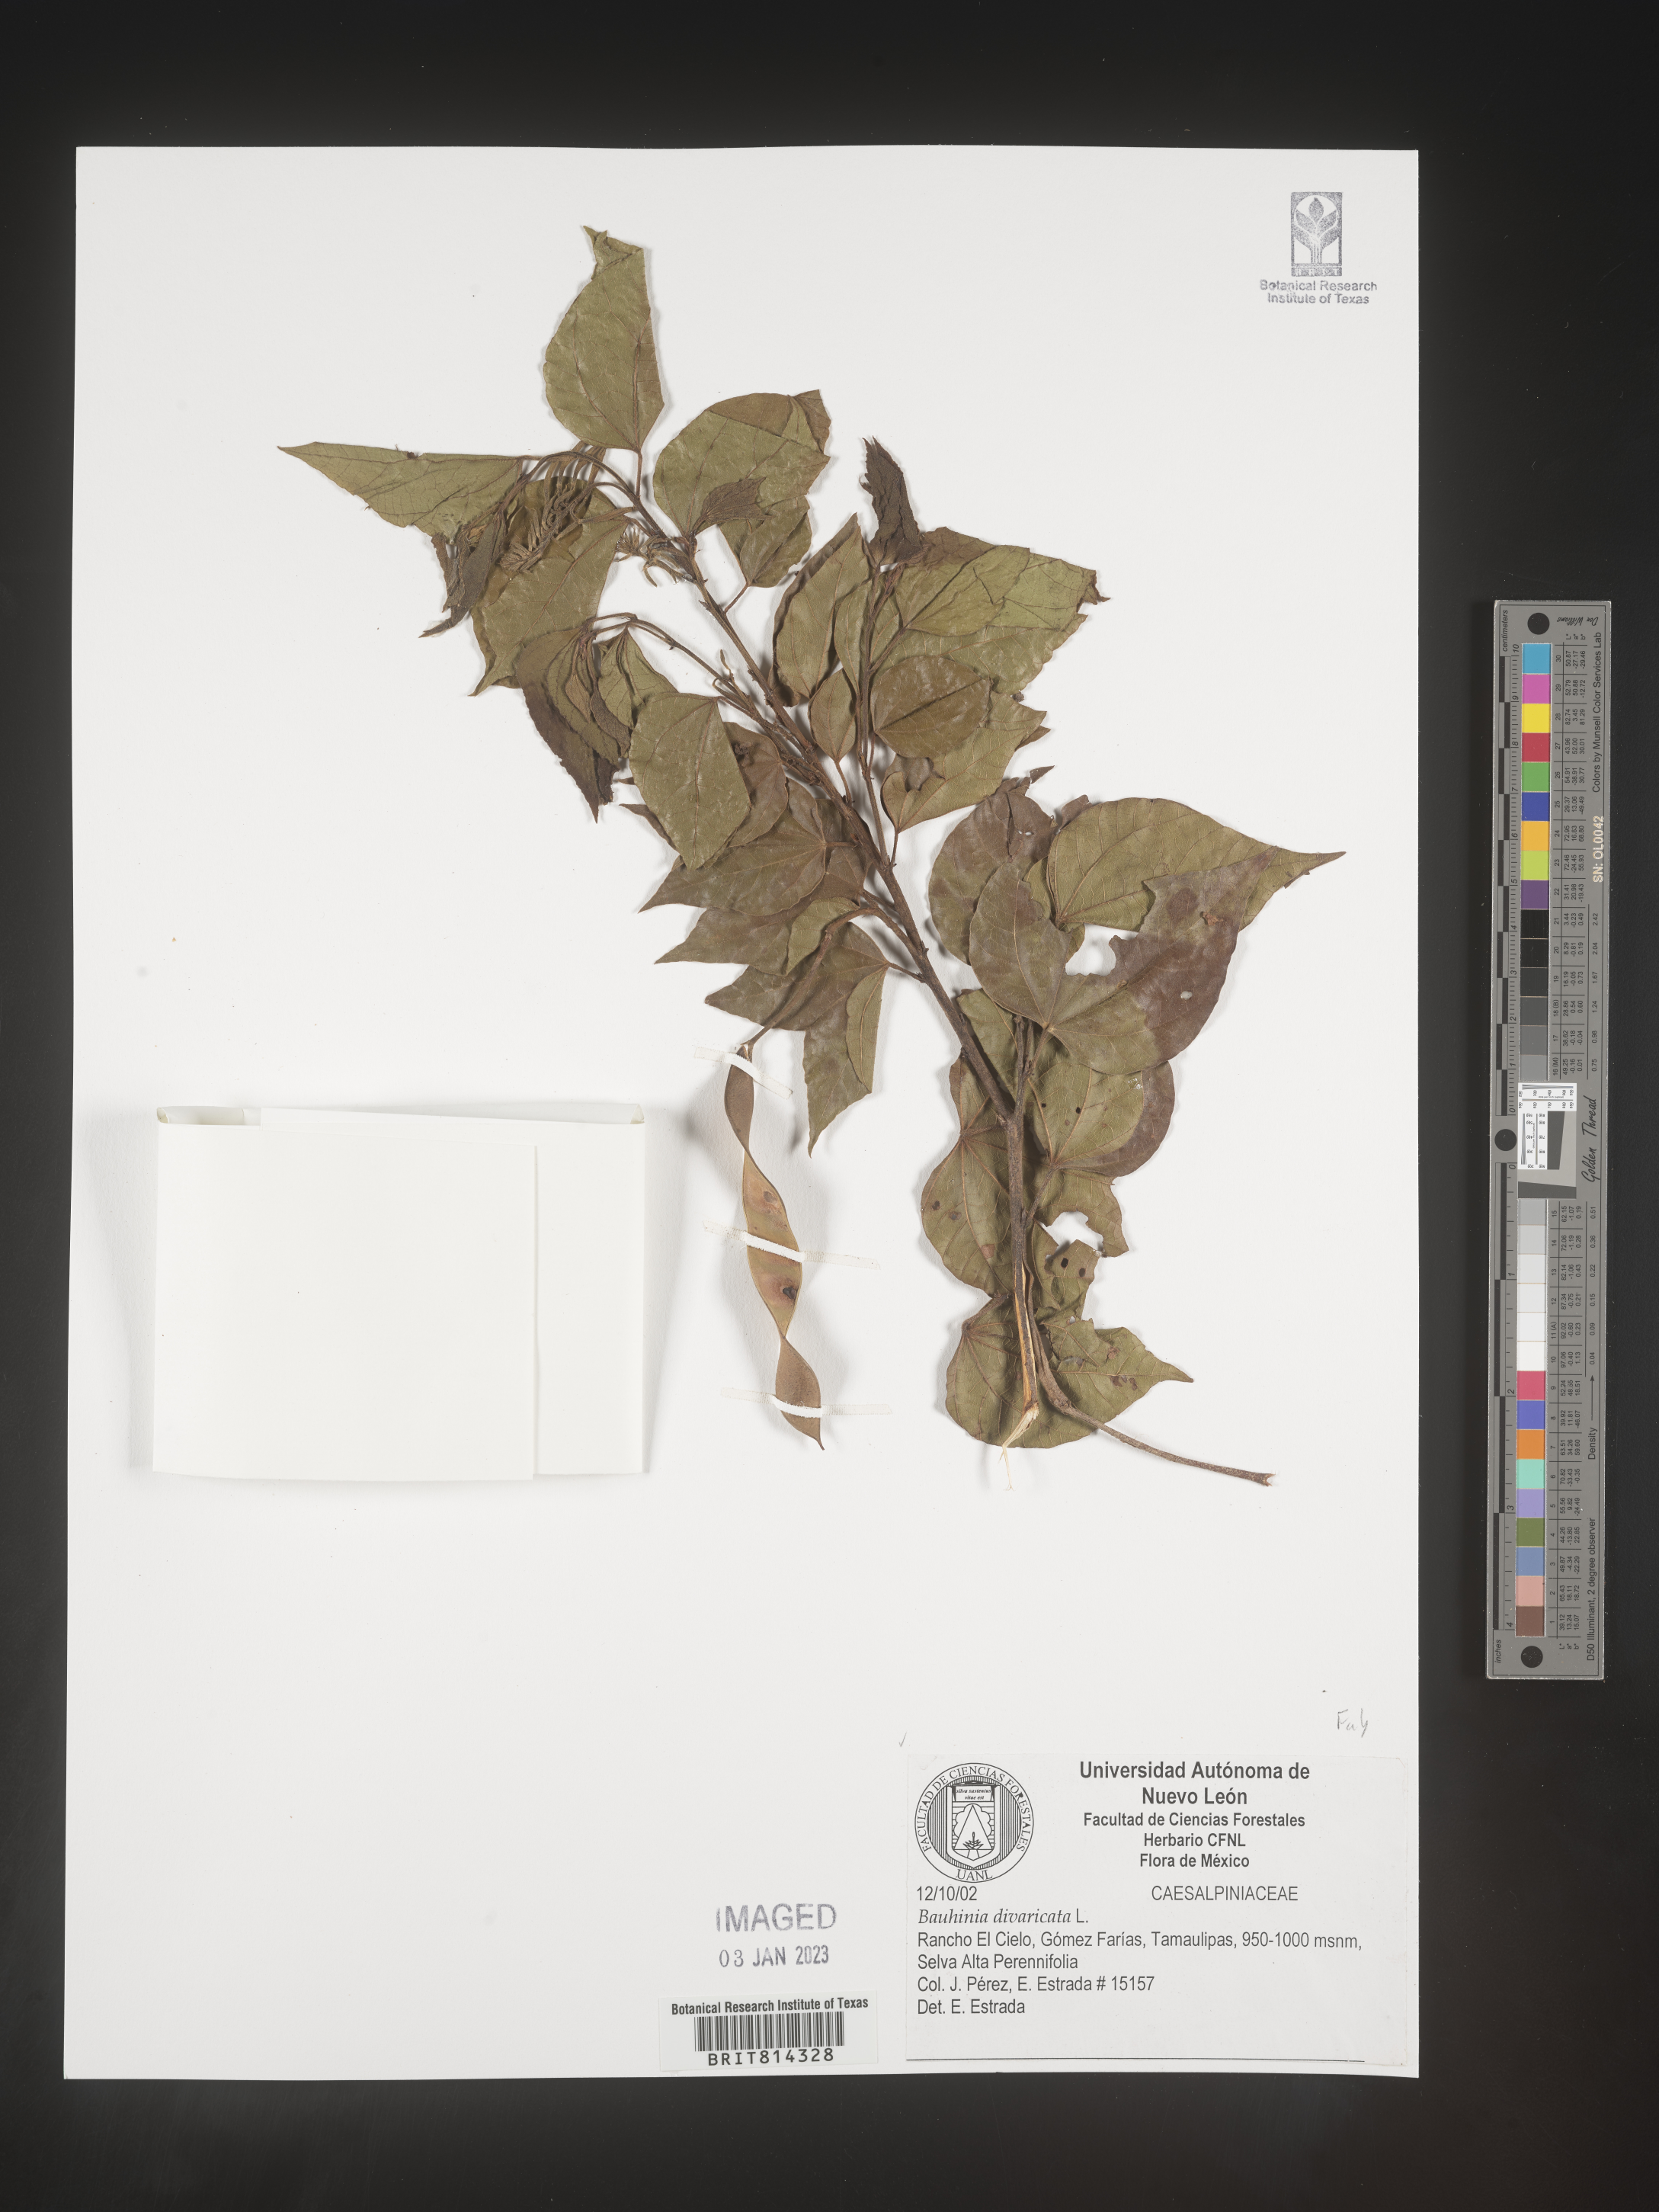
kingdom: Plantae
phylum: Tracheophyta
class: Magnoliopsida
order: Fabales
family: Fabaceae
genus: Bauhinia
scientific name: Bauhinia
